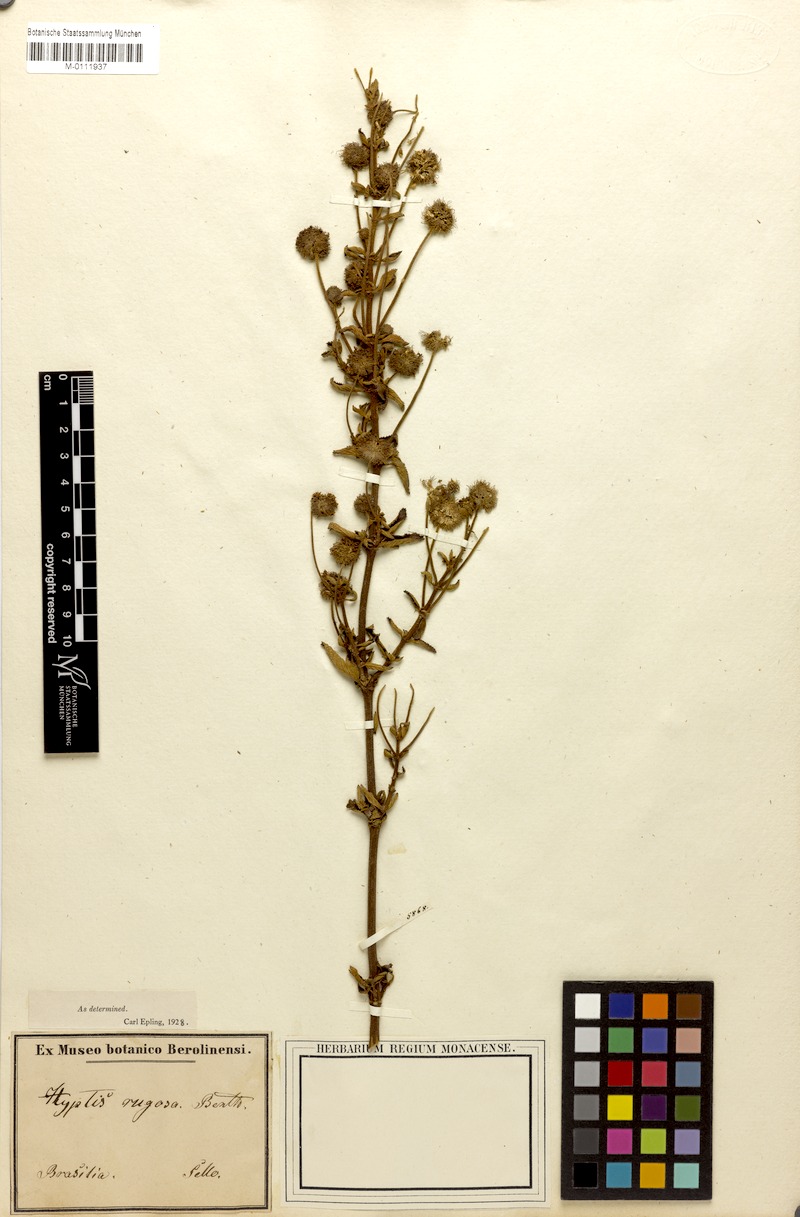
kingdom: Plantae
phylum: Tracheophyta
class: Magnoliopsida
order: Lamiales
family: Lamiaceae
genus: Cyanocephalus
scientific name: Cyanocephalus rugosus
